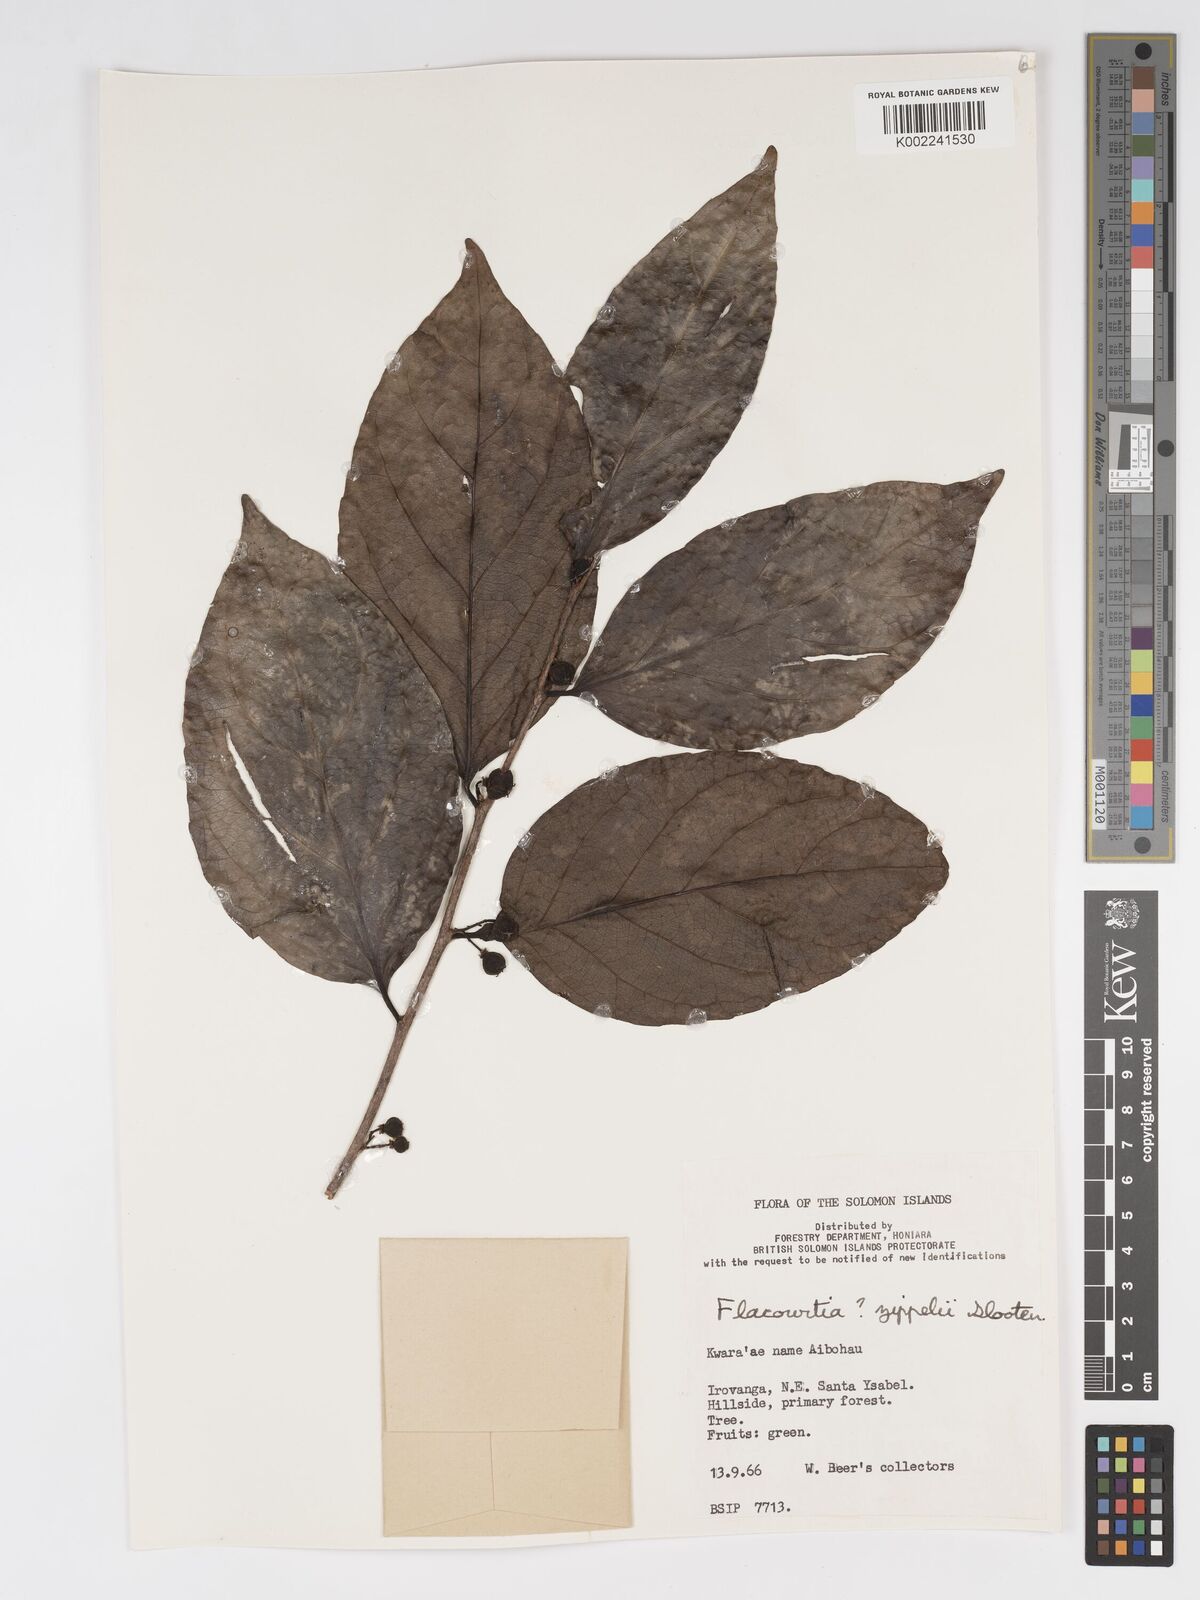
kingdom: Plantae
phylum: Tracheophyta
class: Magnoliopsida
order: Malpighiales
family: Salicaceae
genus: Flacourtia
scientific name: Flacourtia zippelii
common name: Zippeli plum
